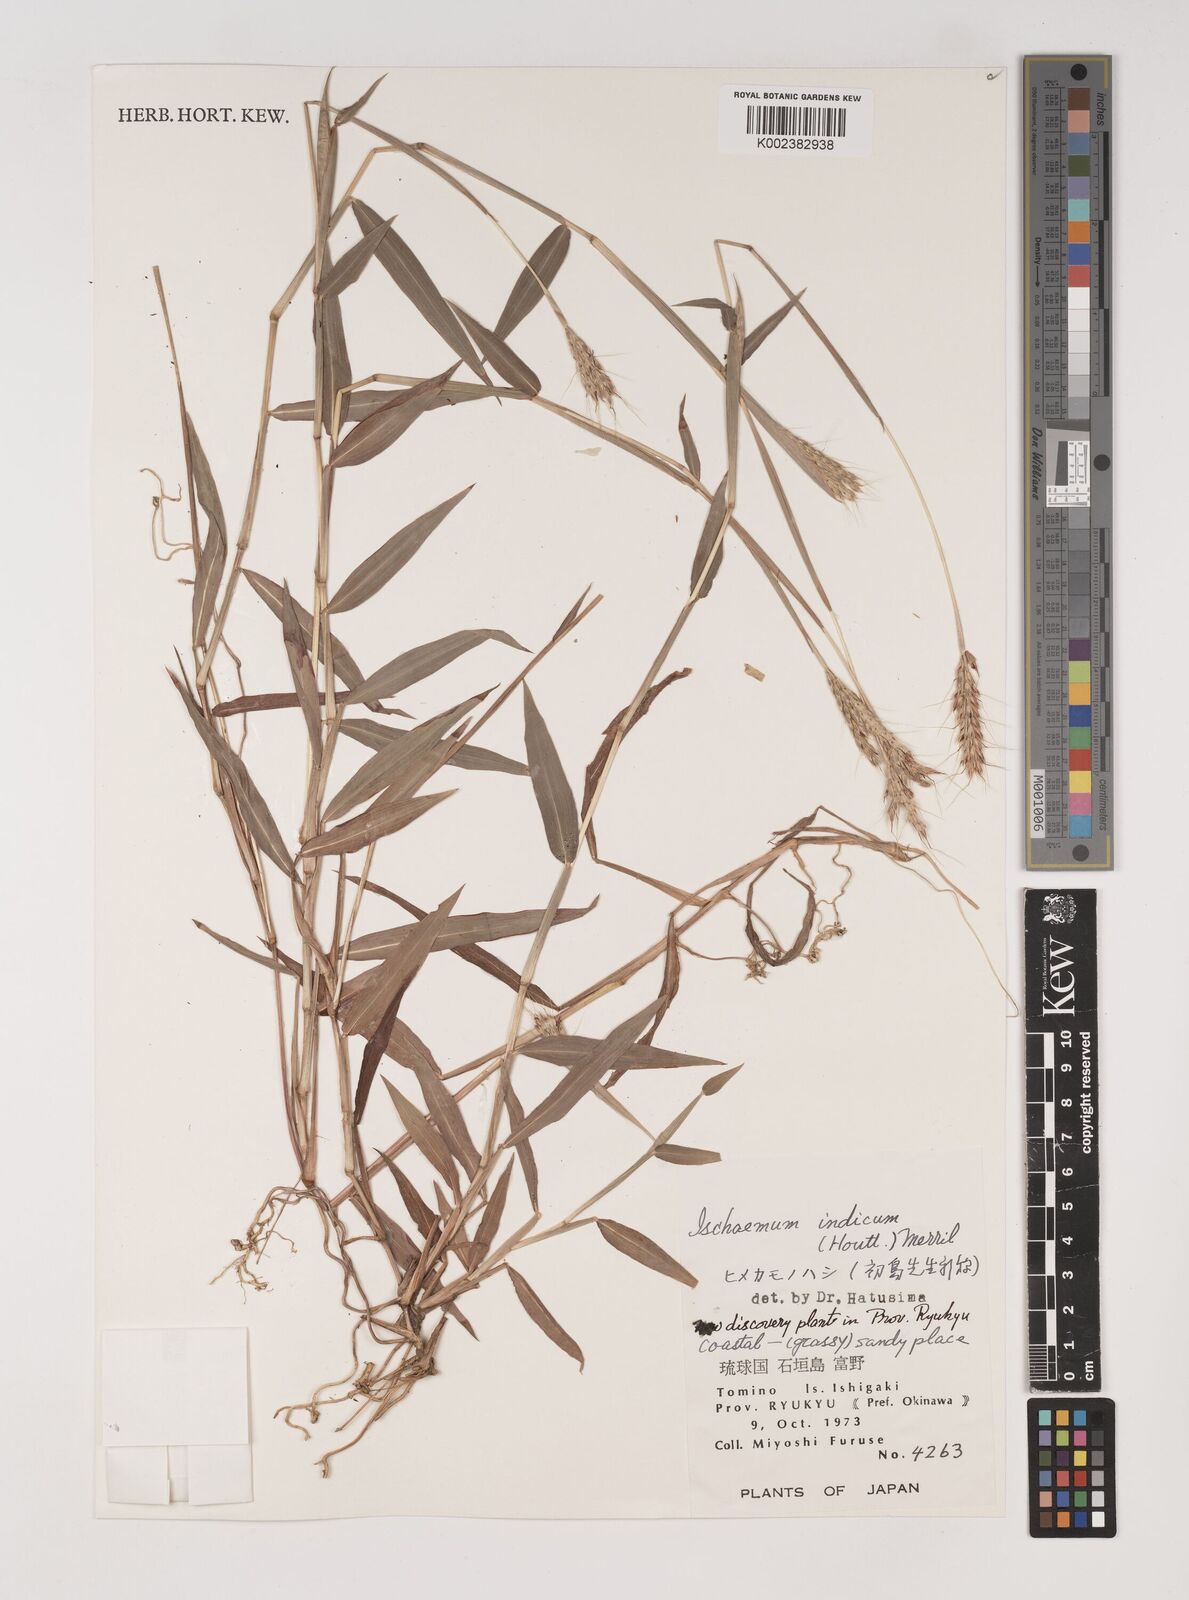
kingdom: Plantae
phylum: Tracheophyta
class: Liliopsida
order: Poales
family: Poaceae
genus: Ischaemum
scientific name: Ischaemum ciliare
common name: Grass
